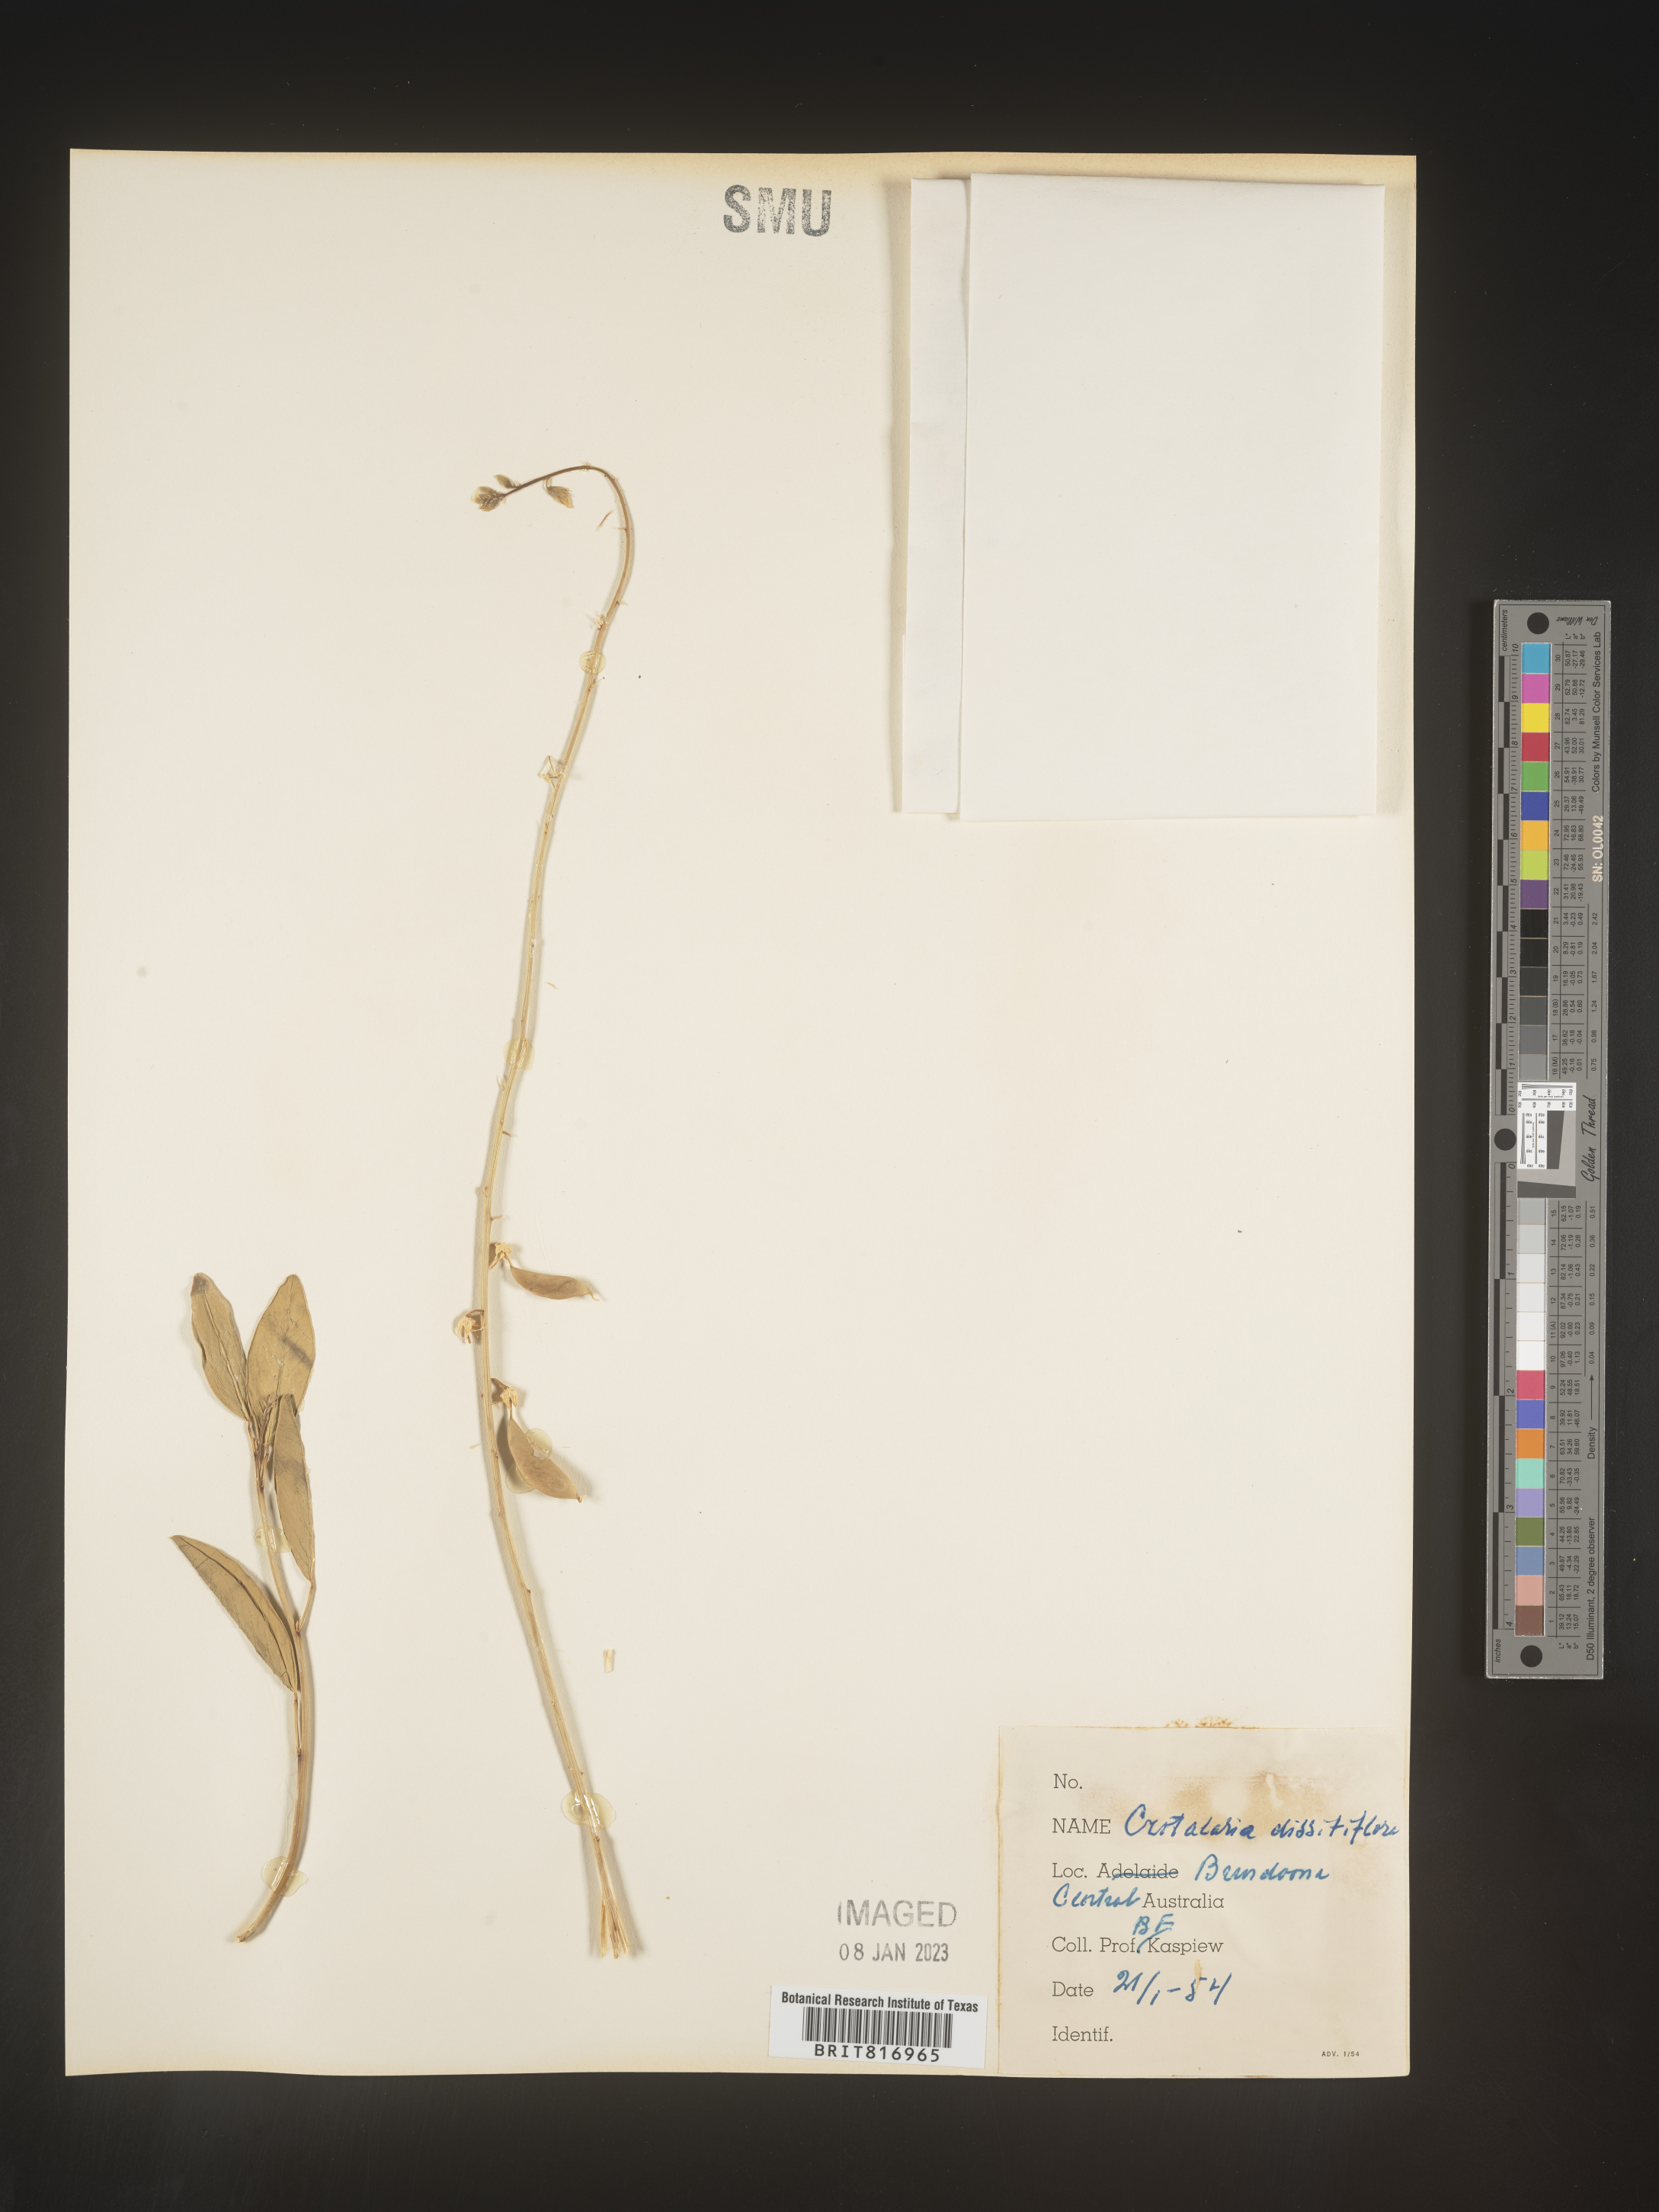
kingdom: Plantae
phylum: Tracheophyta
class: Magnoliopsida
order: Fabales
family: Fabaceae
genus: Crotalaria
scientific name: Crotalaria
